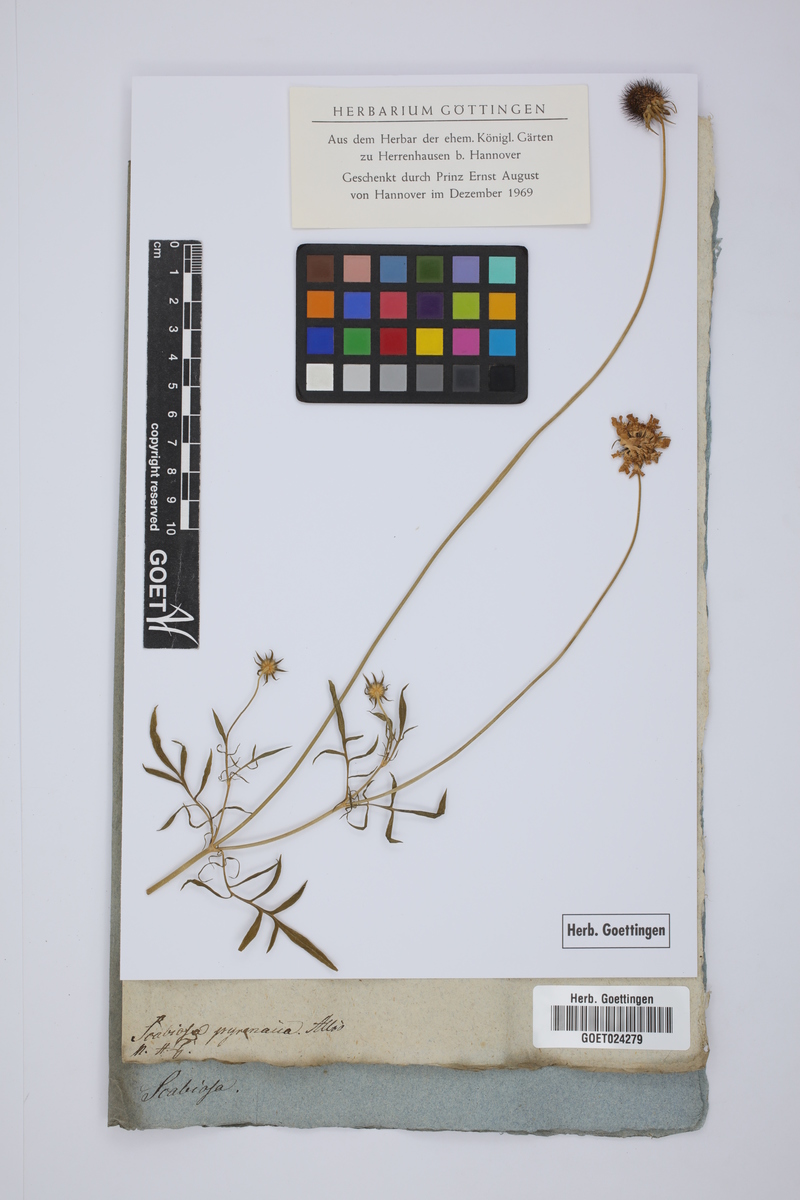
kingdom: Plantae
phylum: Tracheophyta
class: Magnoliopsida
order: Dipsacales
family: Caprifoliaceae
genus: Scabiosa
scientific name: Scabiosa pyrenaica
